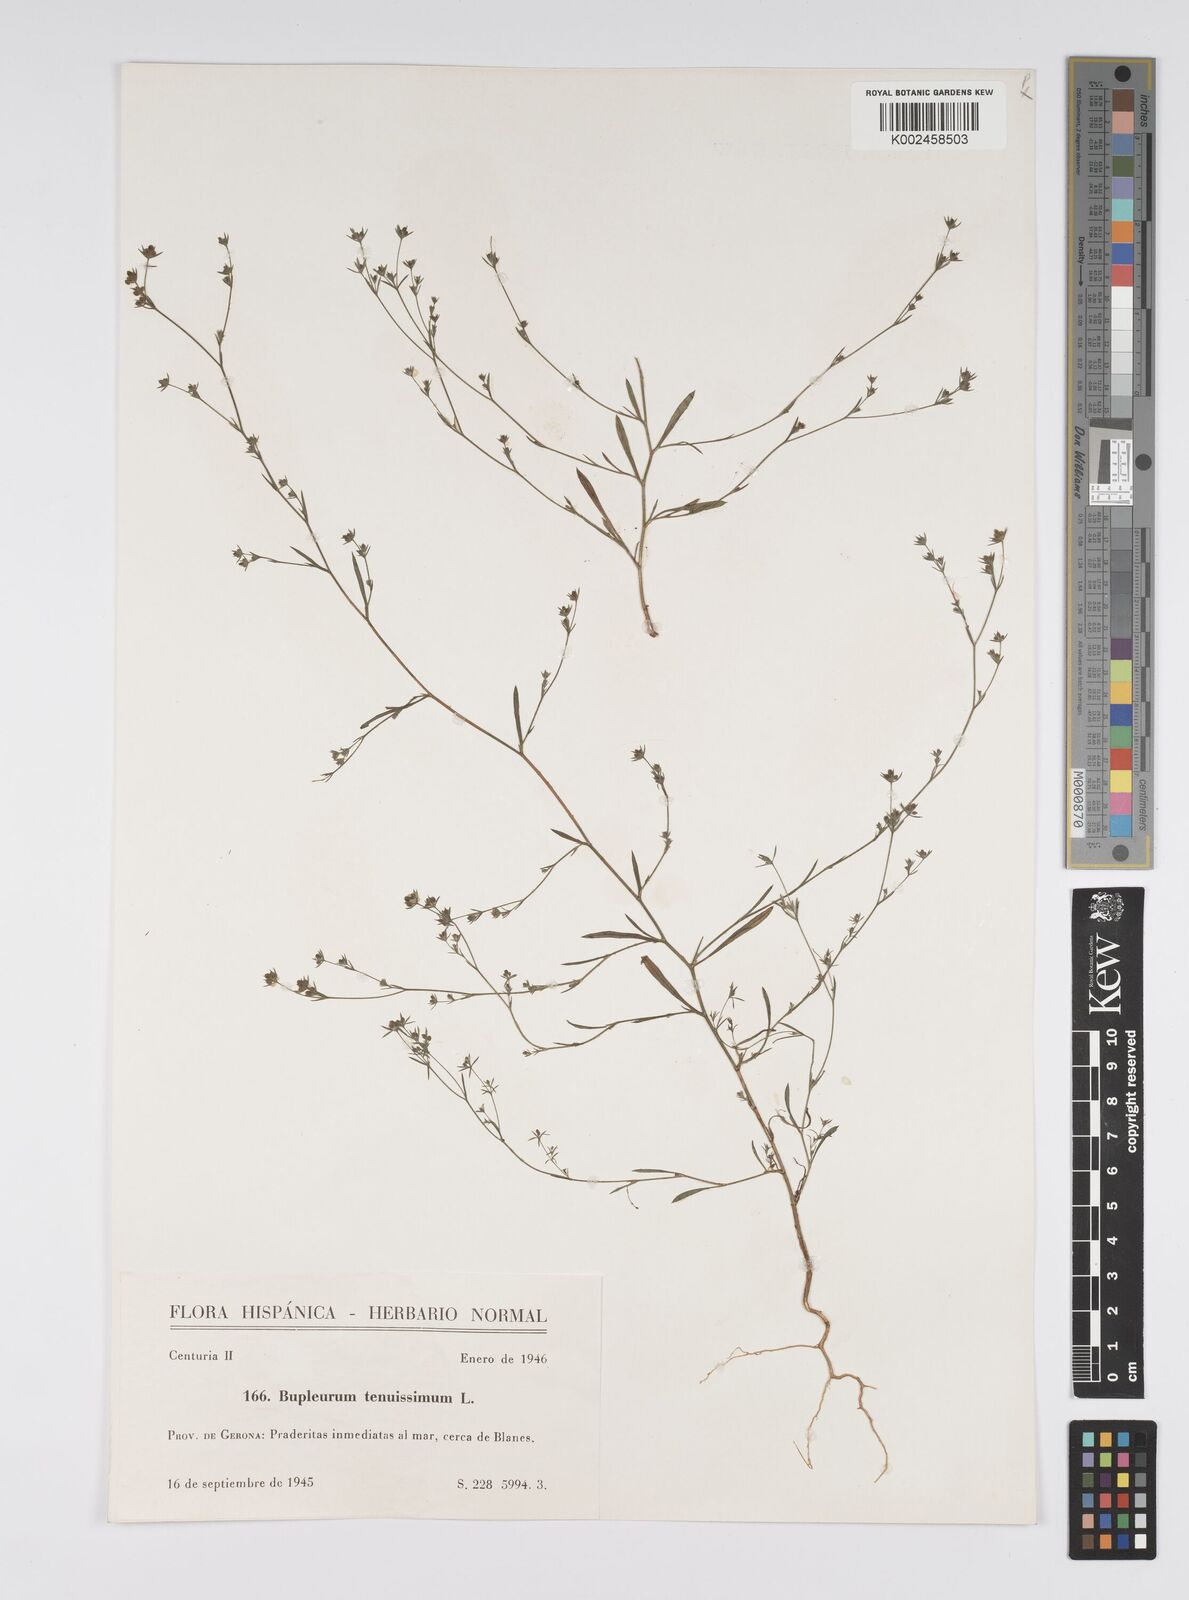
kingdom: Plantae
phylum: Tracheophyta
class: Magnoliopsida
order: Apiales
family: Apiaceae
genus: Bupleurum
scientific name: Bupleurum tenuissimum
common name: Slender hare's-ear
